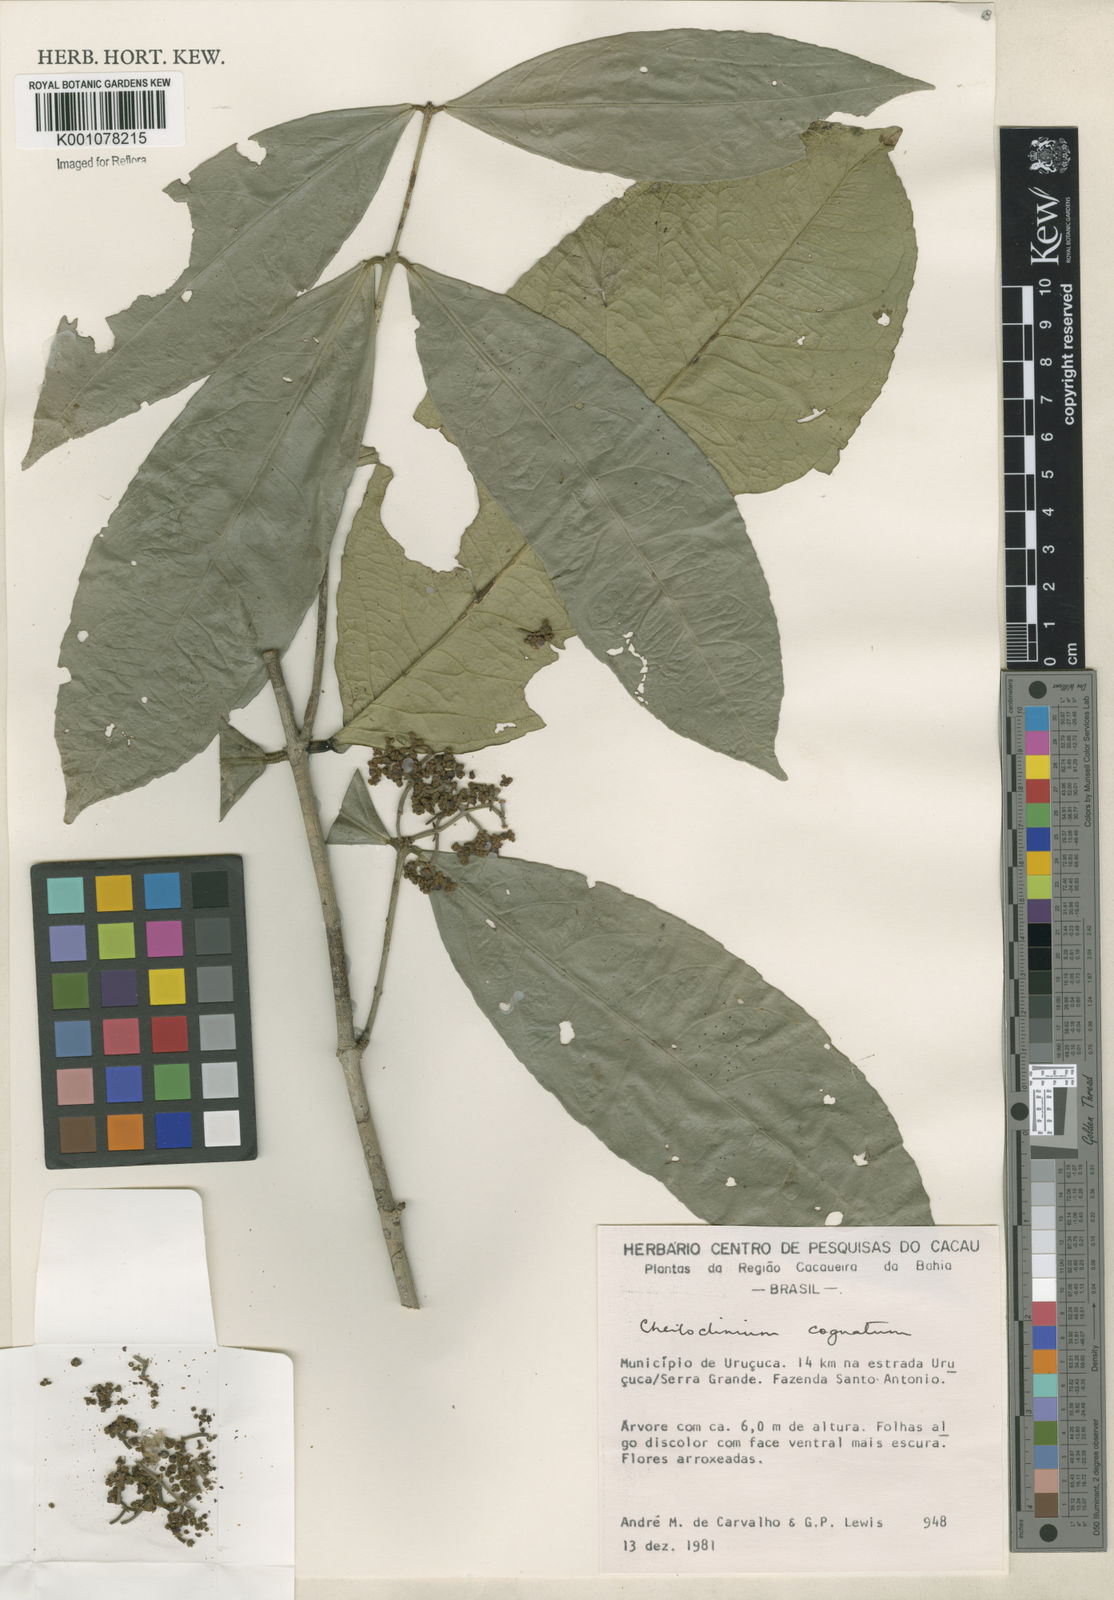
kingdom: Plantae
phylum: Tracheophyta
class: Magnoliopsida
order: Celastrales
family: Celastraceae
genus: Cheiloclinium
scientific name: Cheiloclinium cognatum
